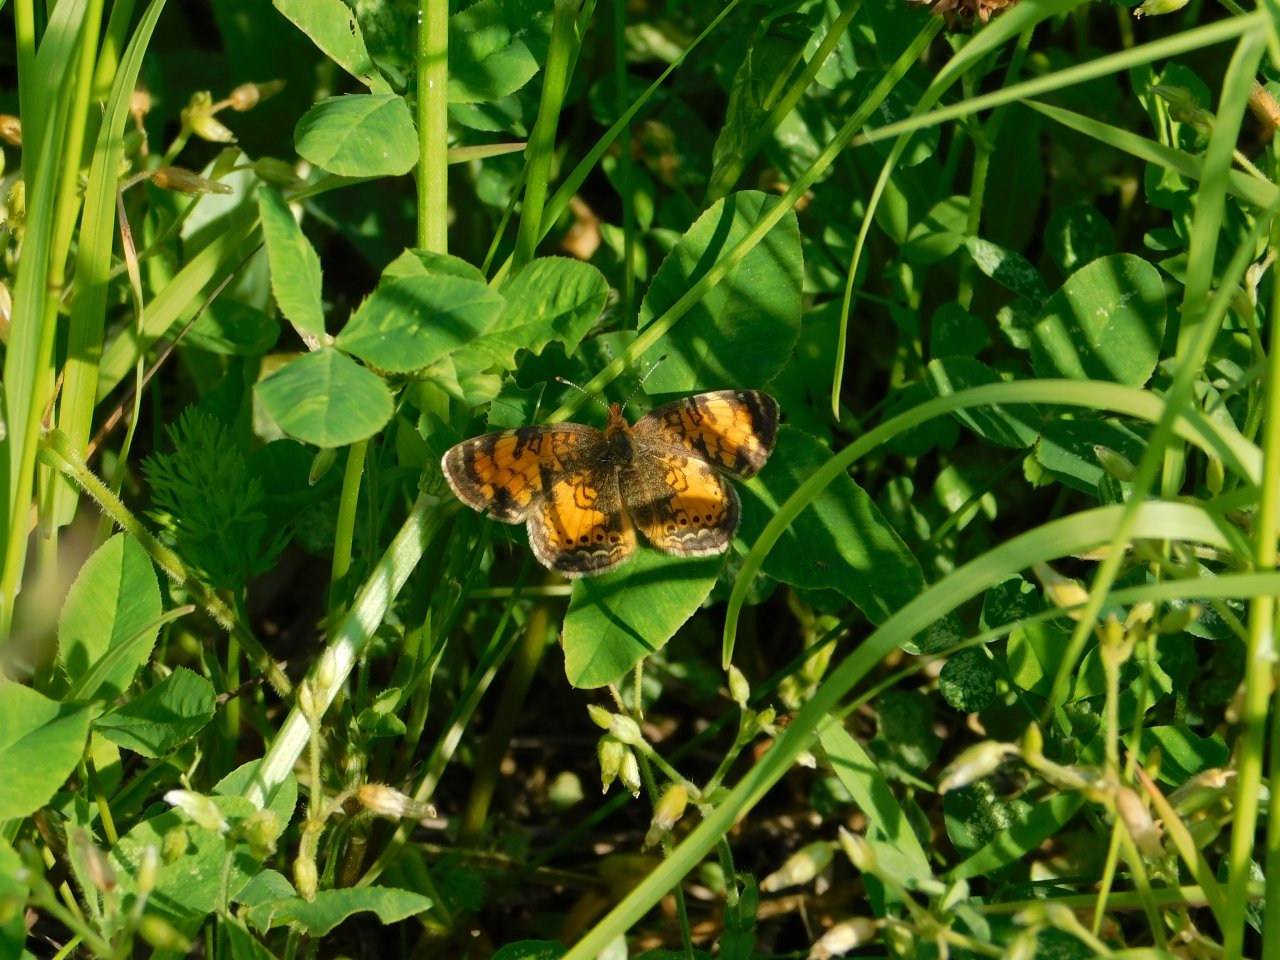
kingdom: Animalia
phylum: Arthropoda
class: Insecta
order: Lepidoptera
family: Nymphalidae
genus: Phyciodes
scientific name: Phyciodes tharos
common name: Northern Crescent
